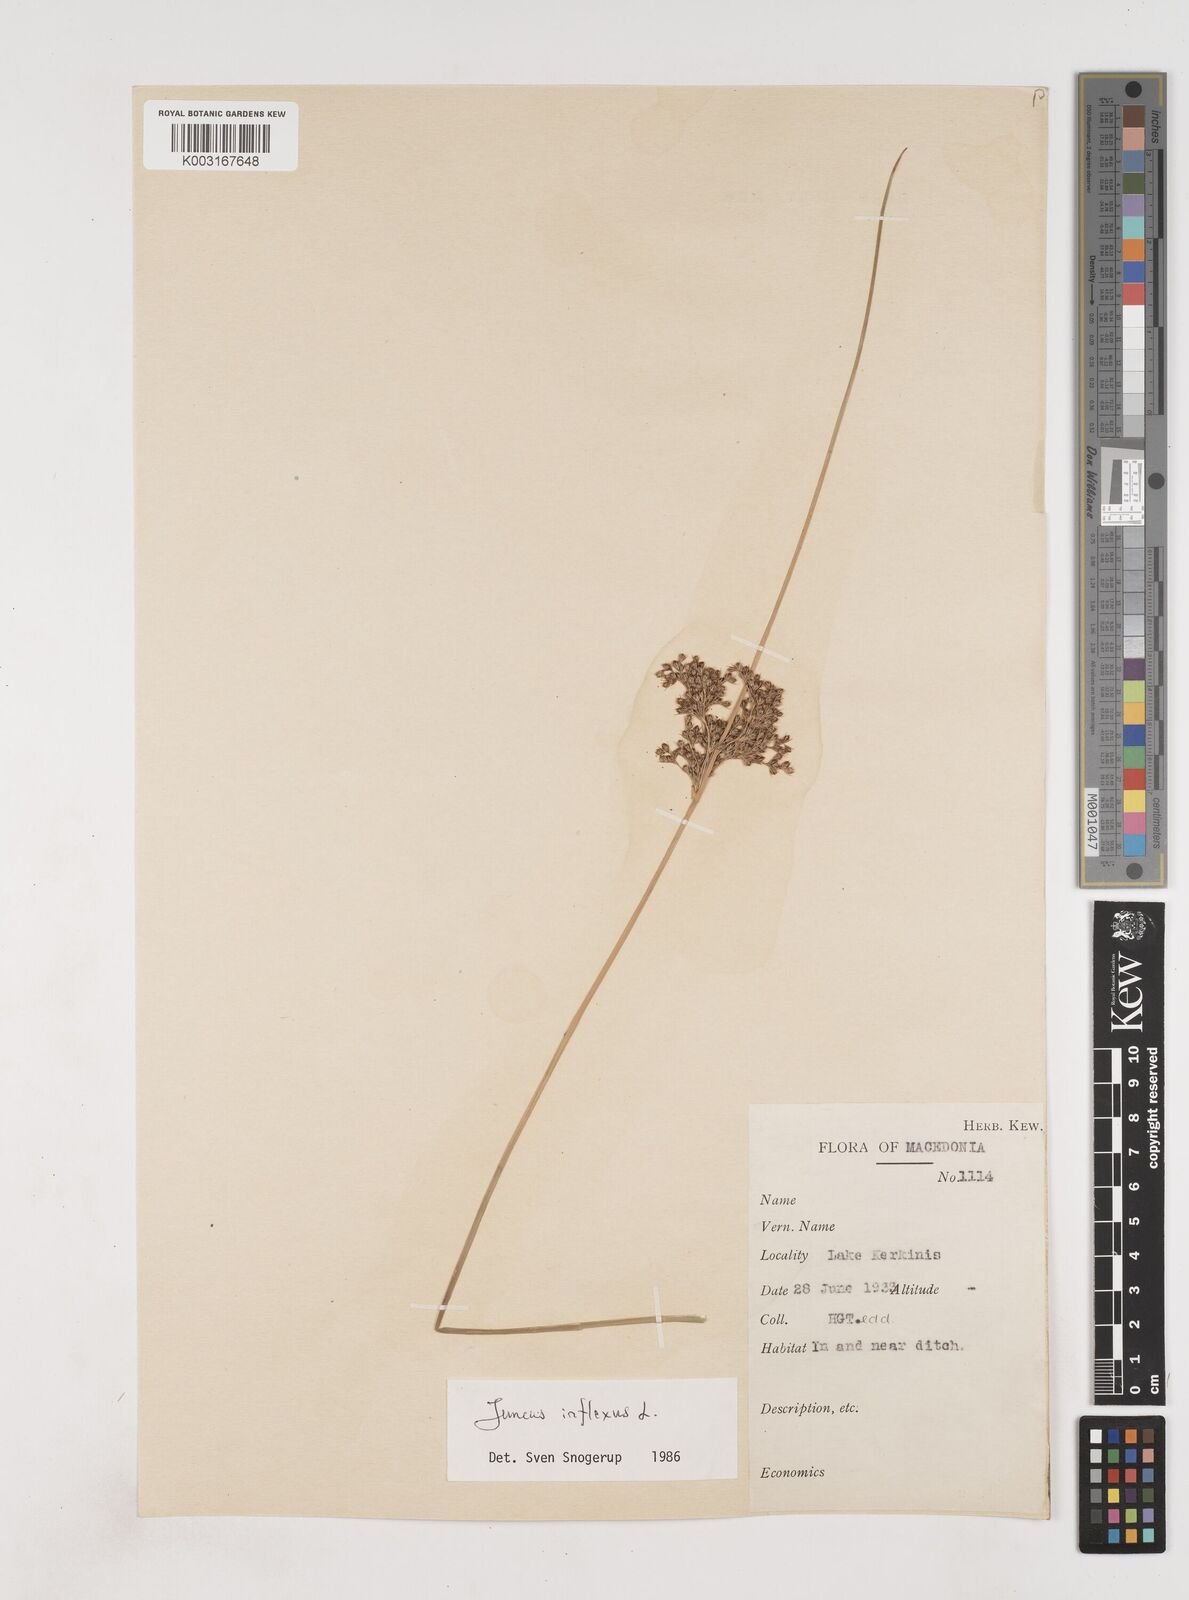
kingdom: Plantae
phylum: Tracheophyta
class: Liliopsida
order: Poales
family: Juncaceae
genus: Juncus
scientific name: Juncus inflexus
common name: Hard rush
